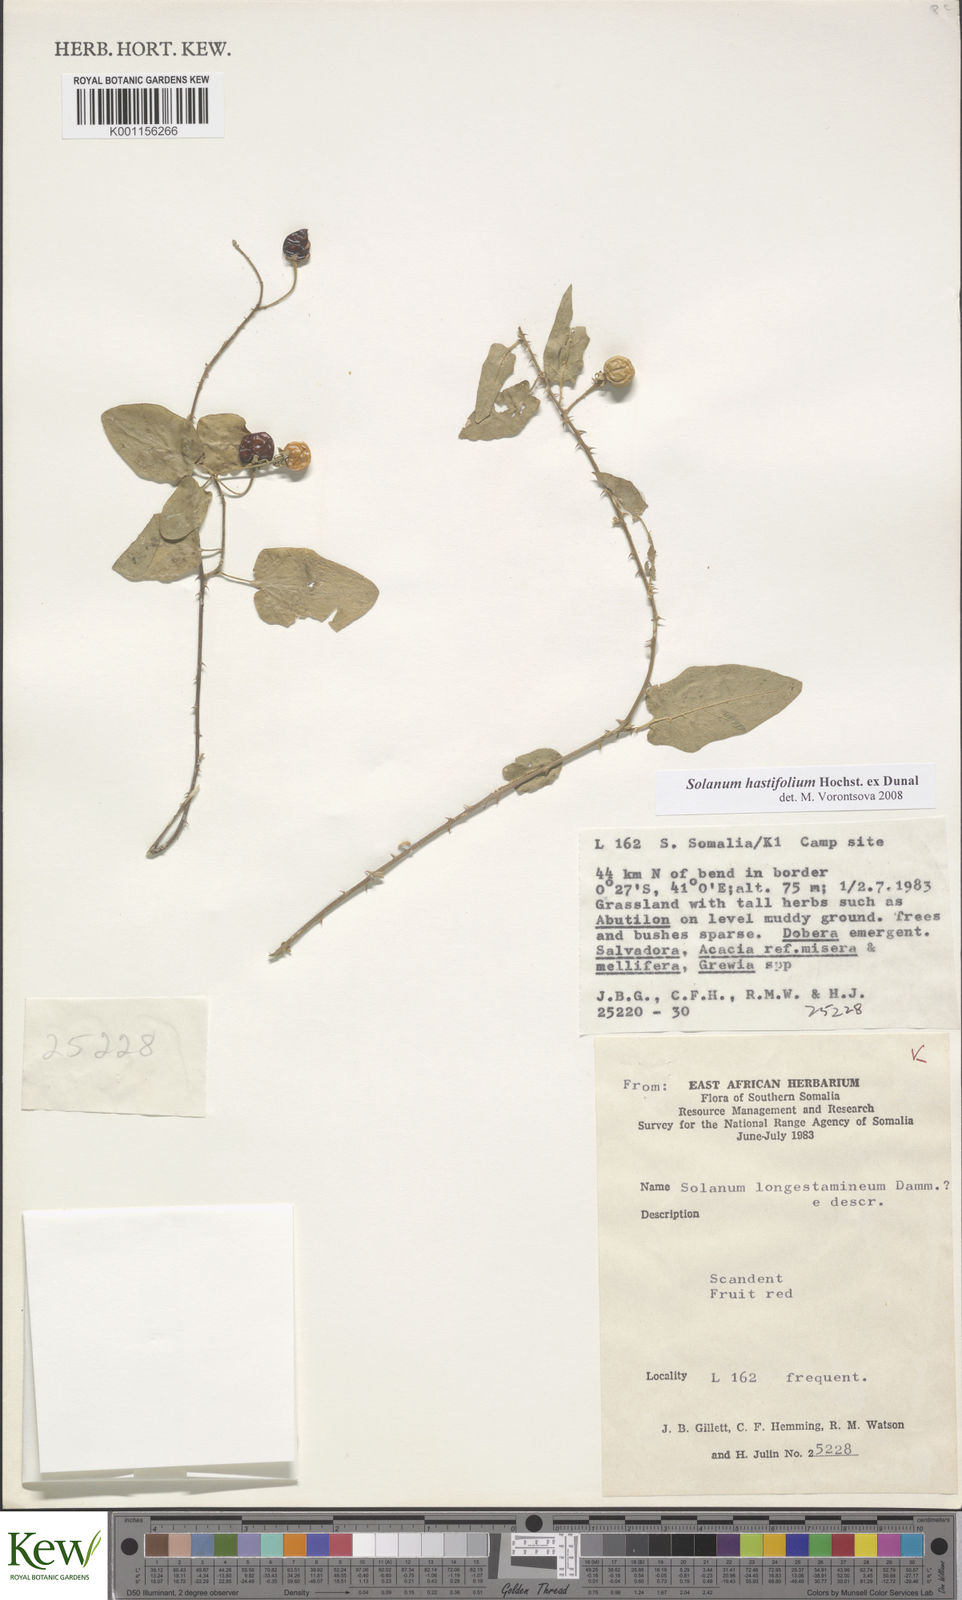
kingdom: Plantae
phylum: Tracheophyta
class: Magnoliopsida
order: Solanales
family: Solanaceae
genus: Solanum
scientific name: Solanum hastifolium
